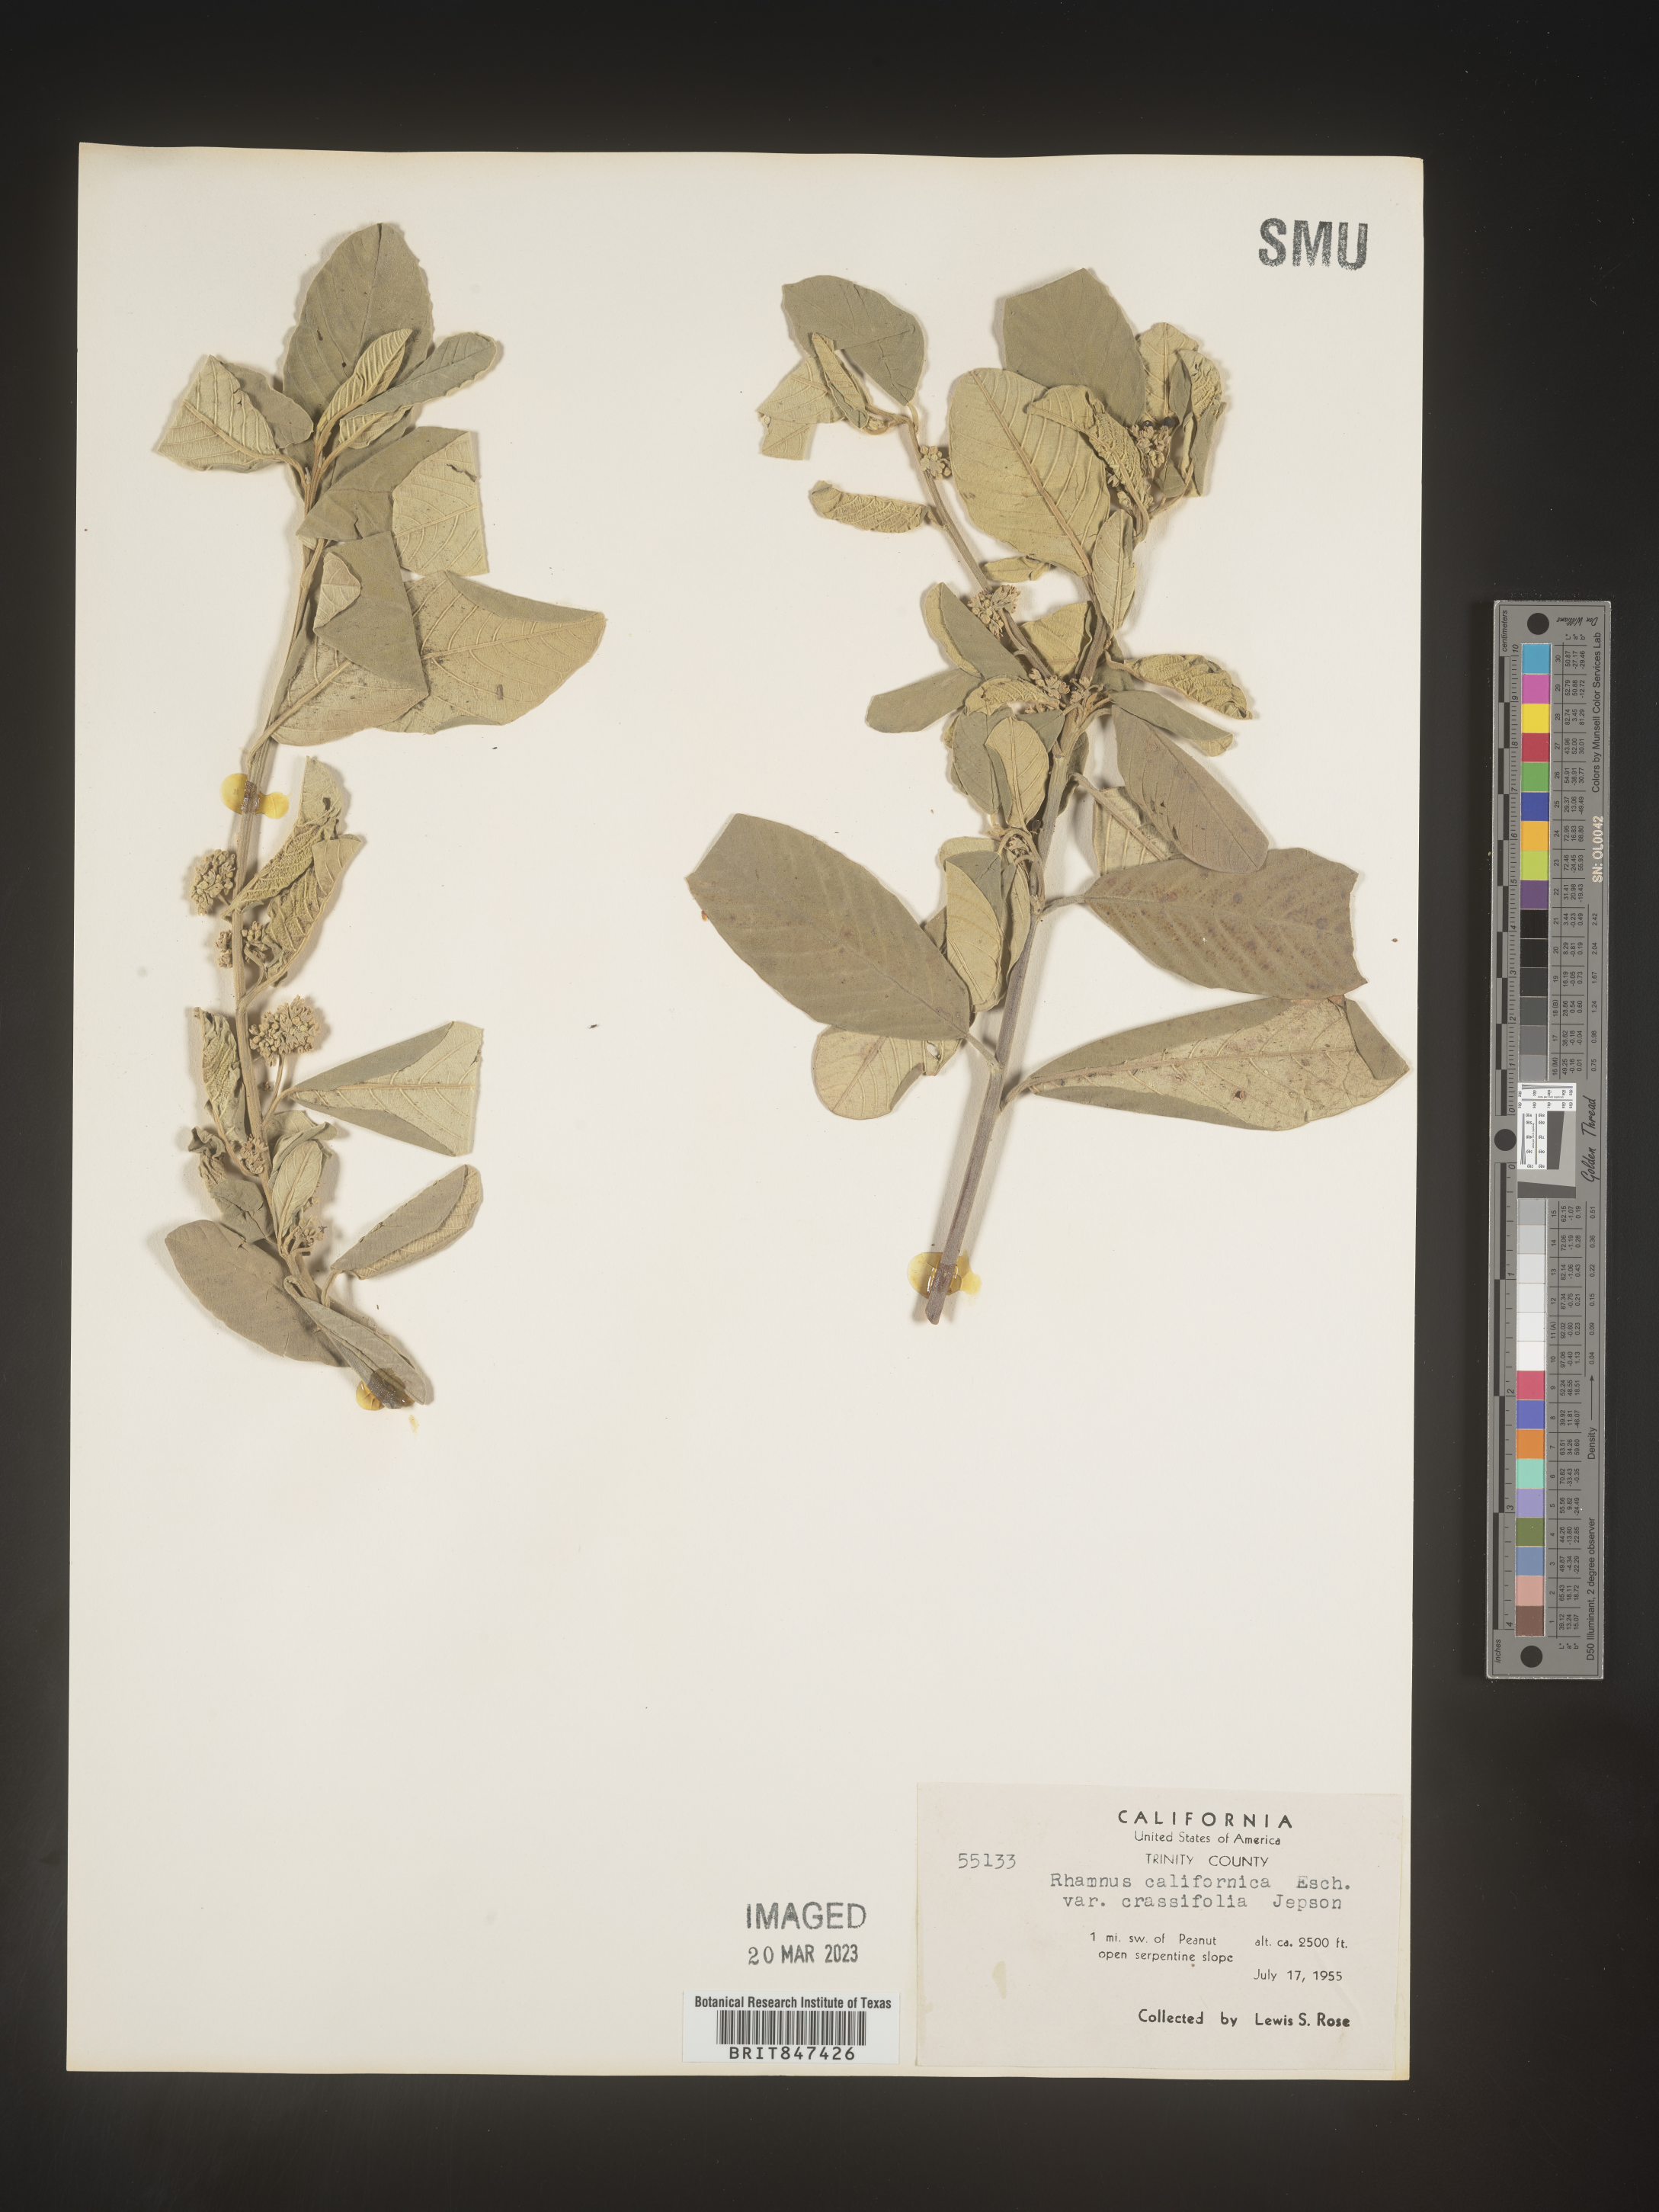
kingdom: Plantae
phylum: Tracheophyta
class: Magnoliopsida
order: Rosales
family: Rhamnaceae
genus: Frangula
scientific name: Frangula californica
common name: California buckthorn
